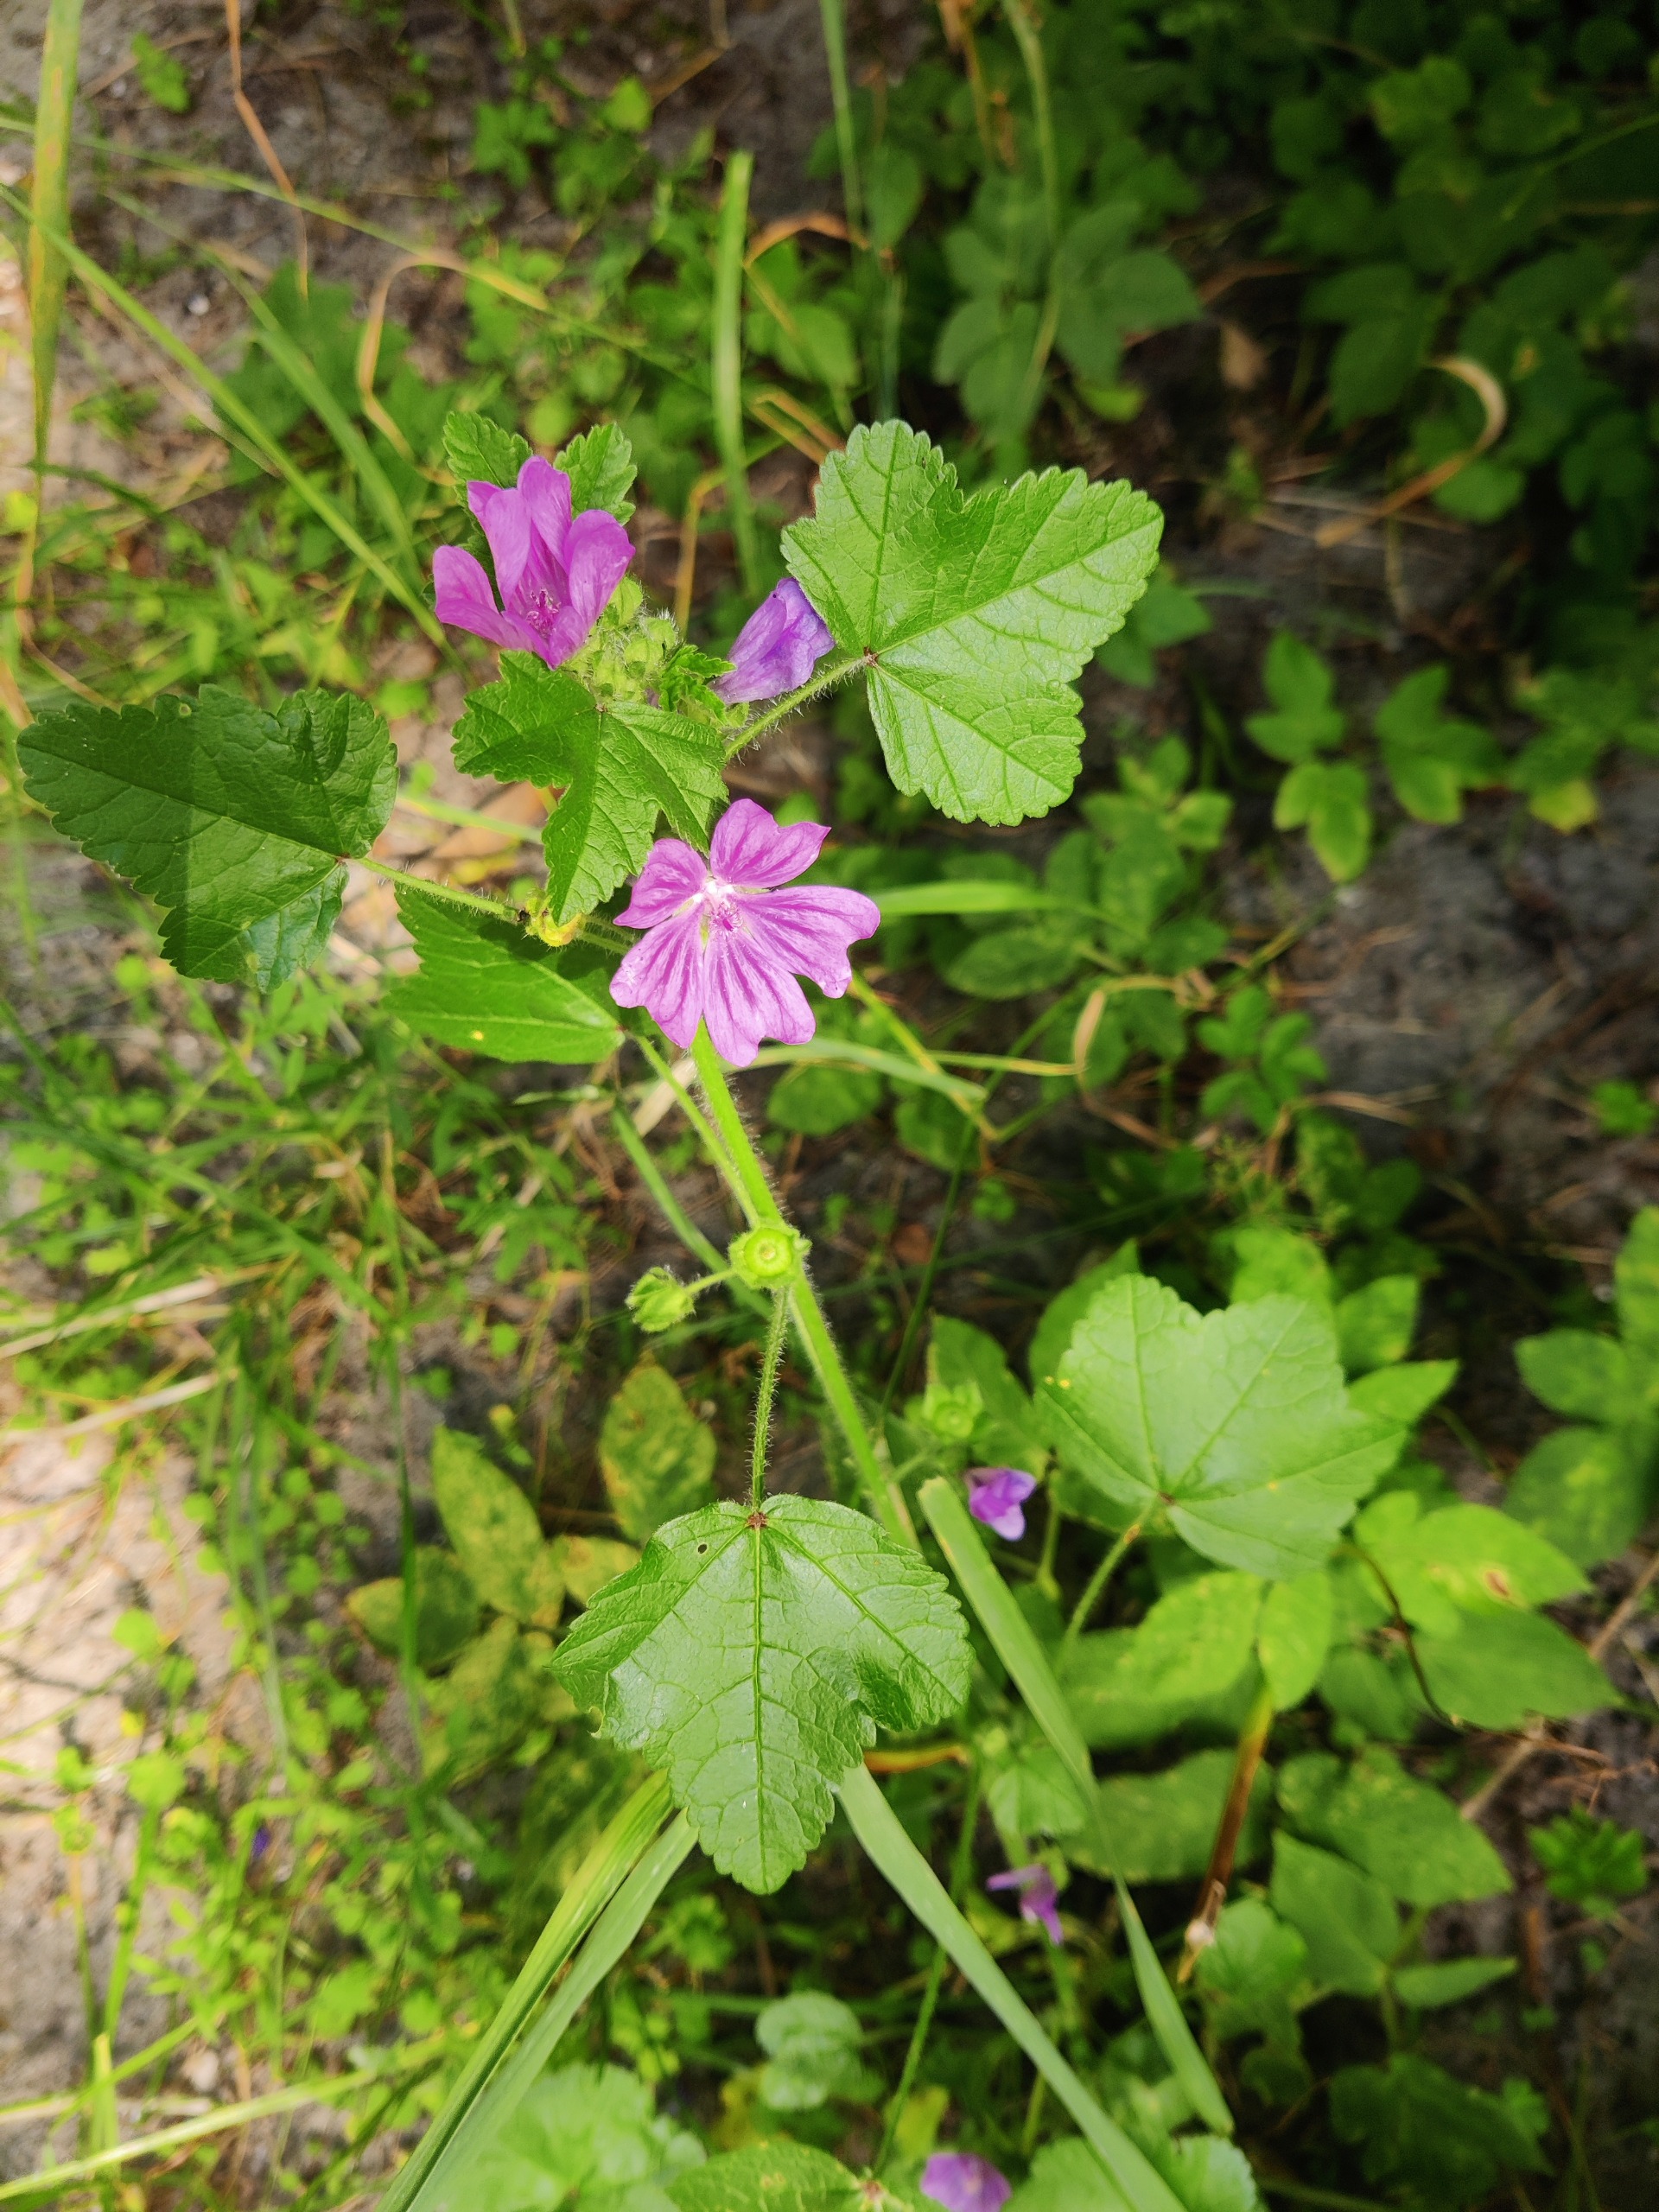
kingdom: Plantae
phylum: Tracheophyta
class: Magnoliopsida
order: Malvales
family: Malvaceae
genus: Malva
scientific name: Malva sylvestris
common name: Almindelig katost
